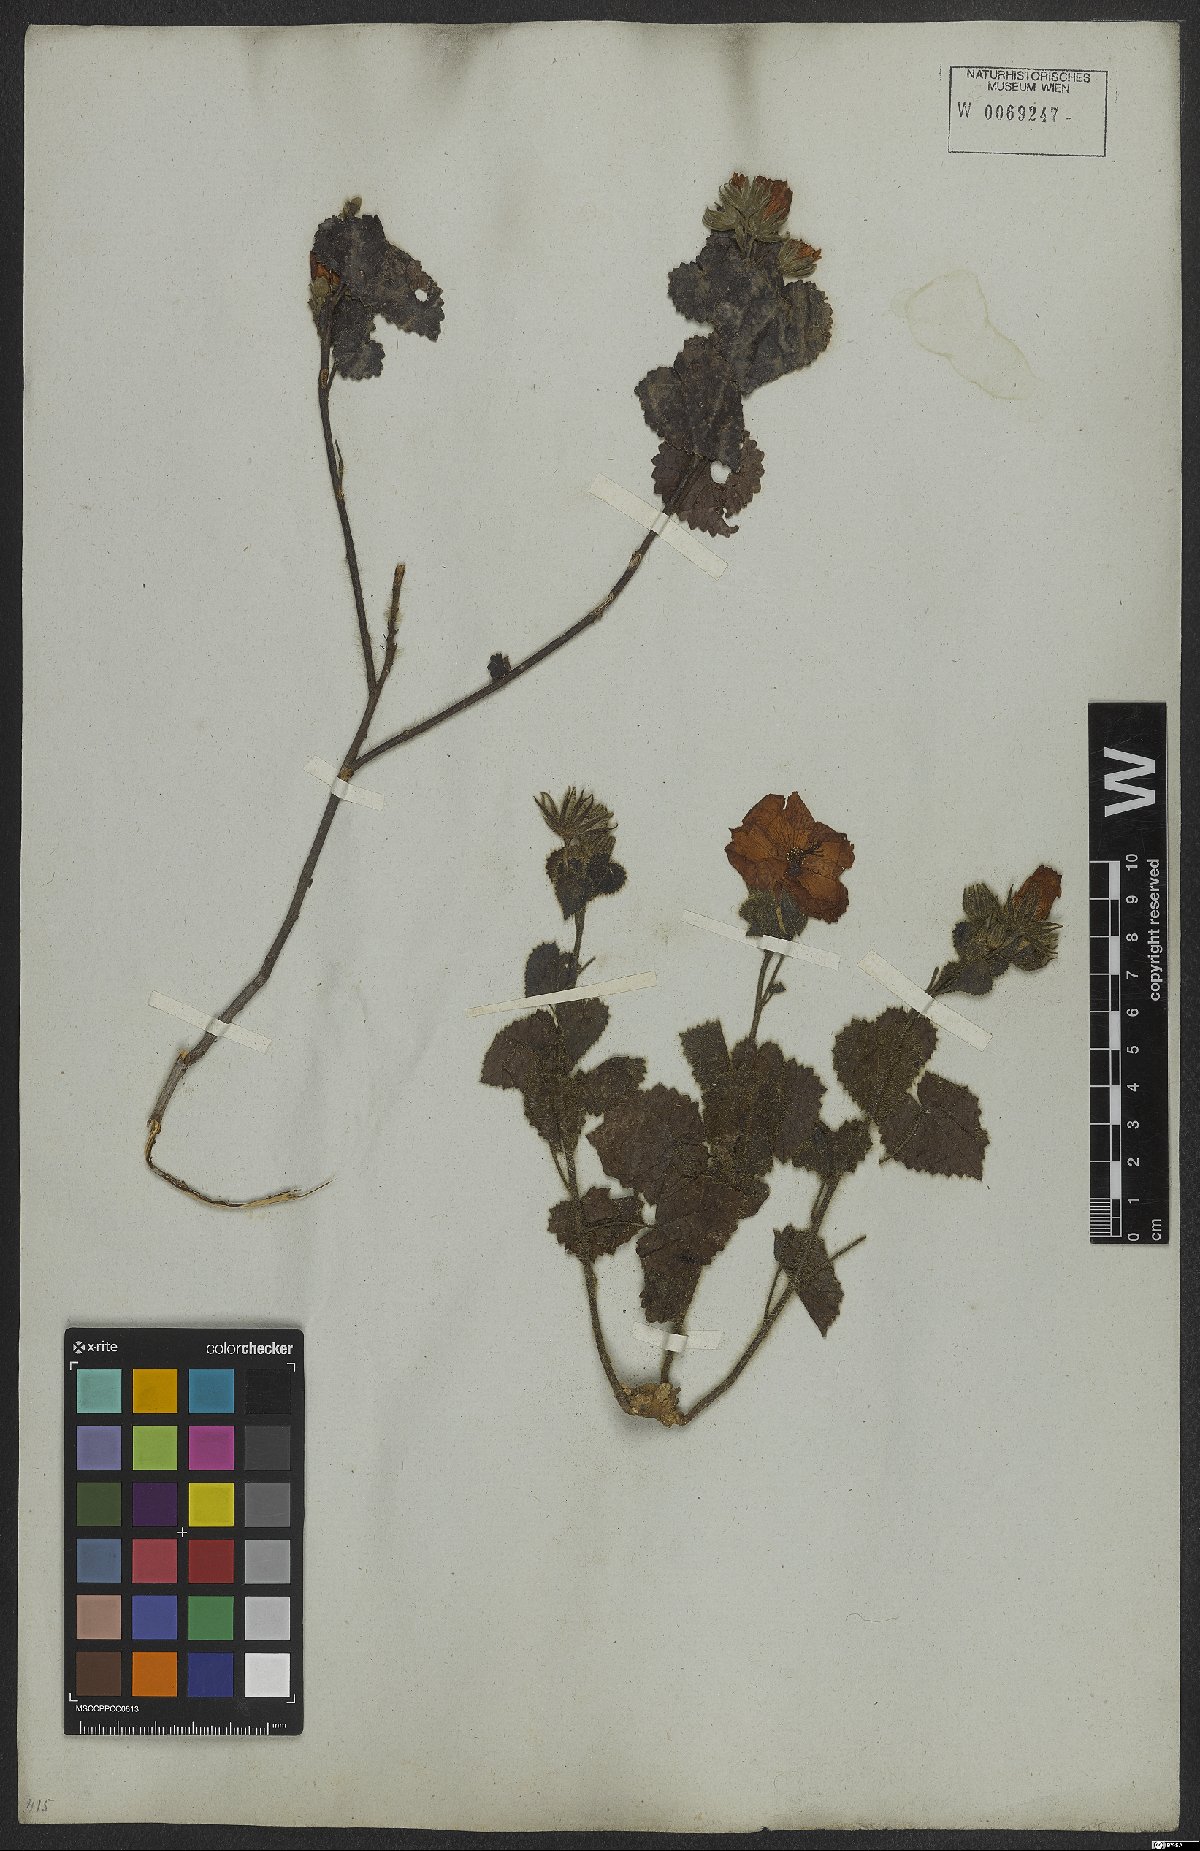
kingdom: Plantae
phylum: Tracheophyta
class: Magnoliopsida
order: Malvales
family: Malvaceae
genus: Pavonia
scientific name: Pavonia rosa-campestris
